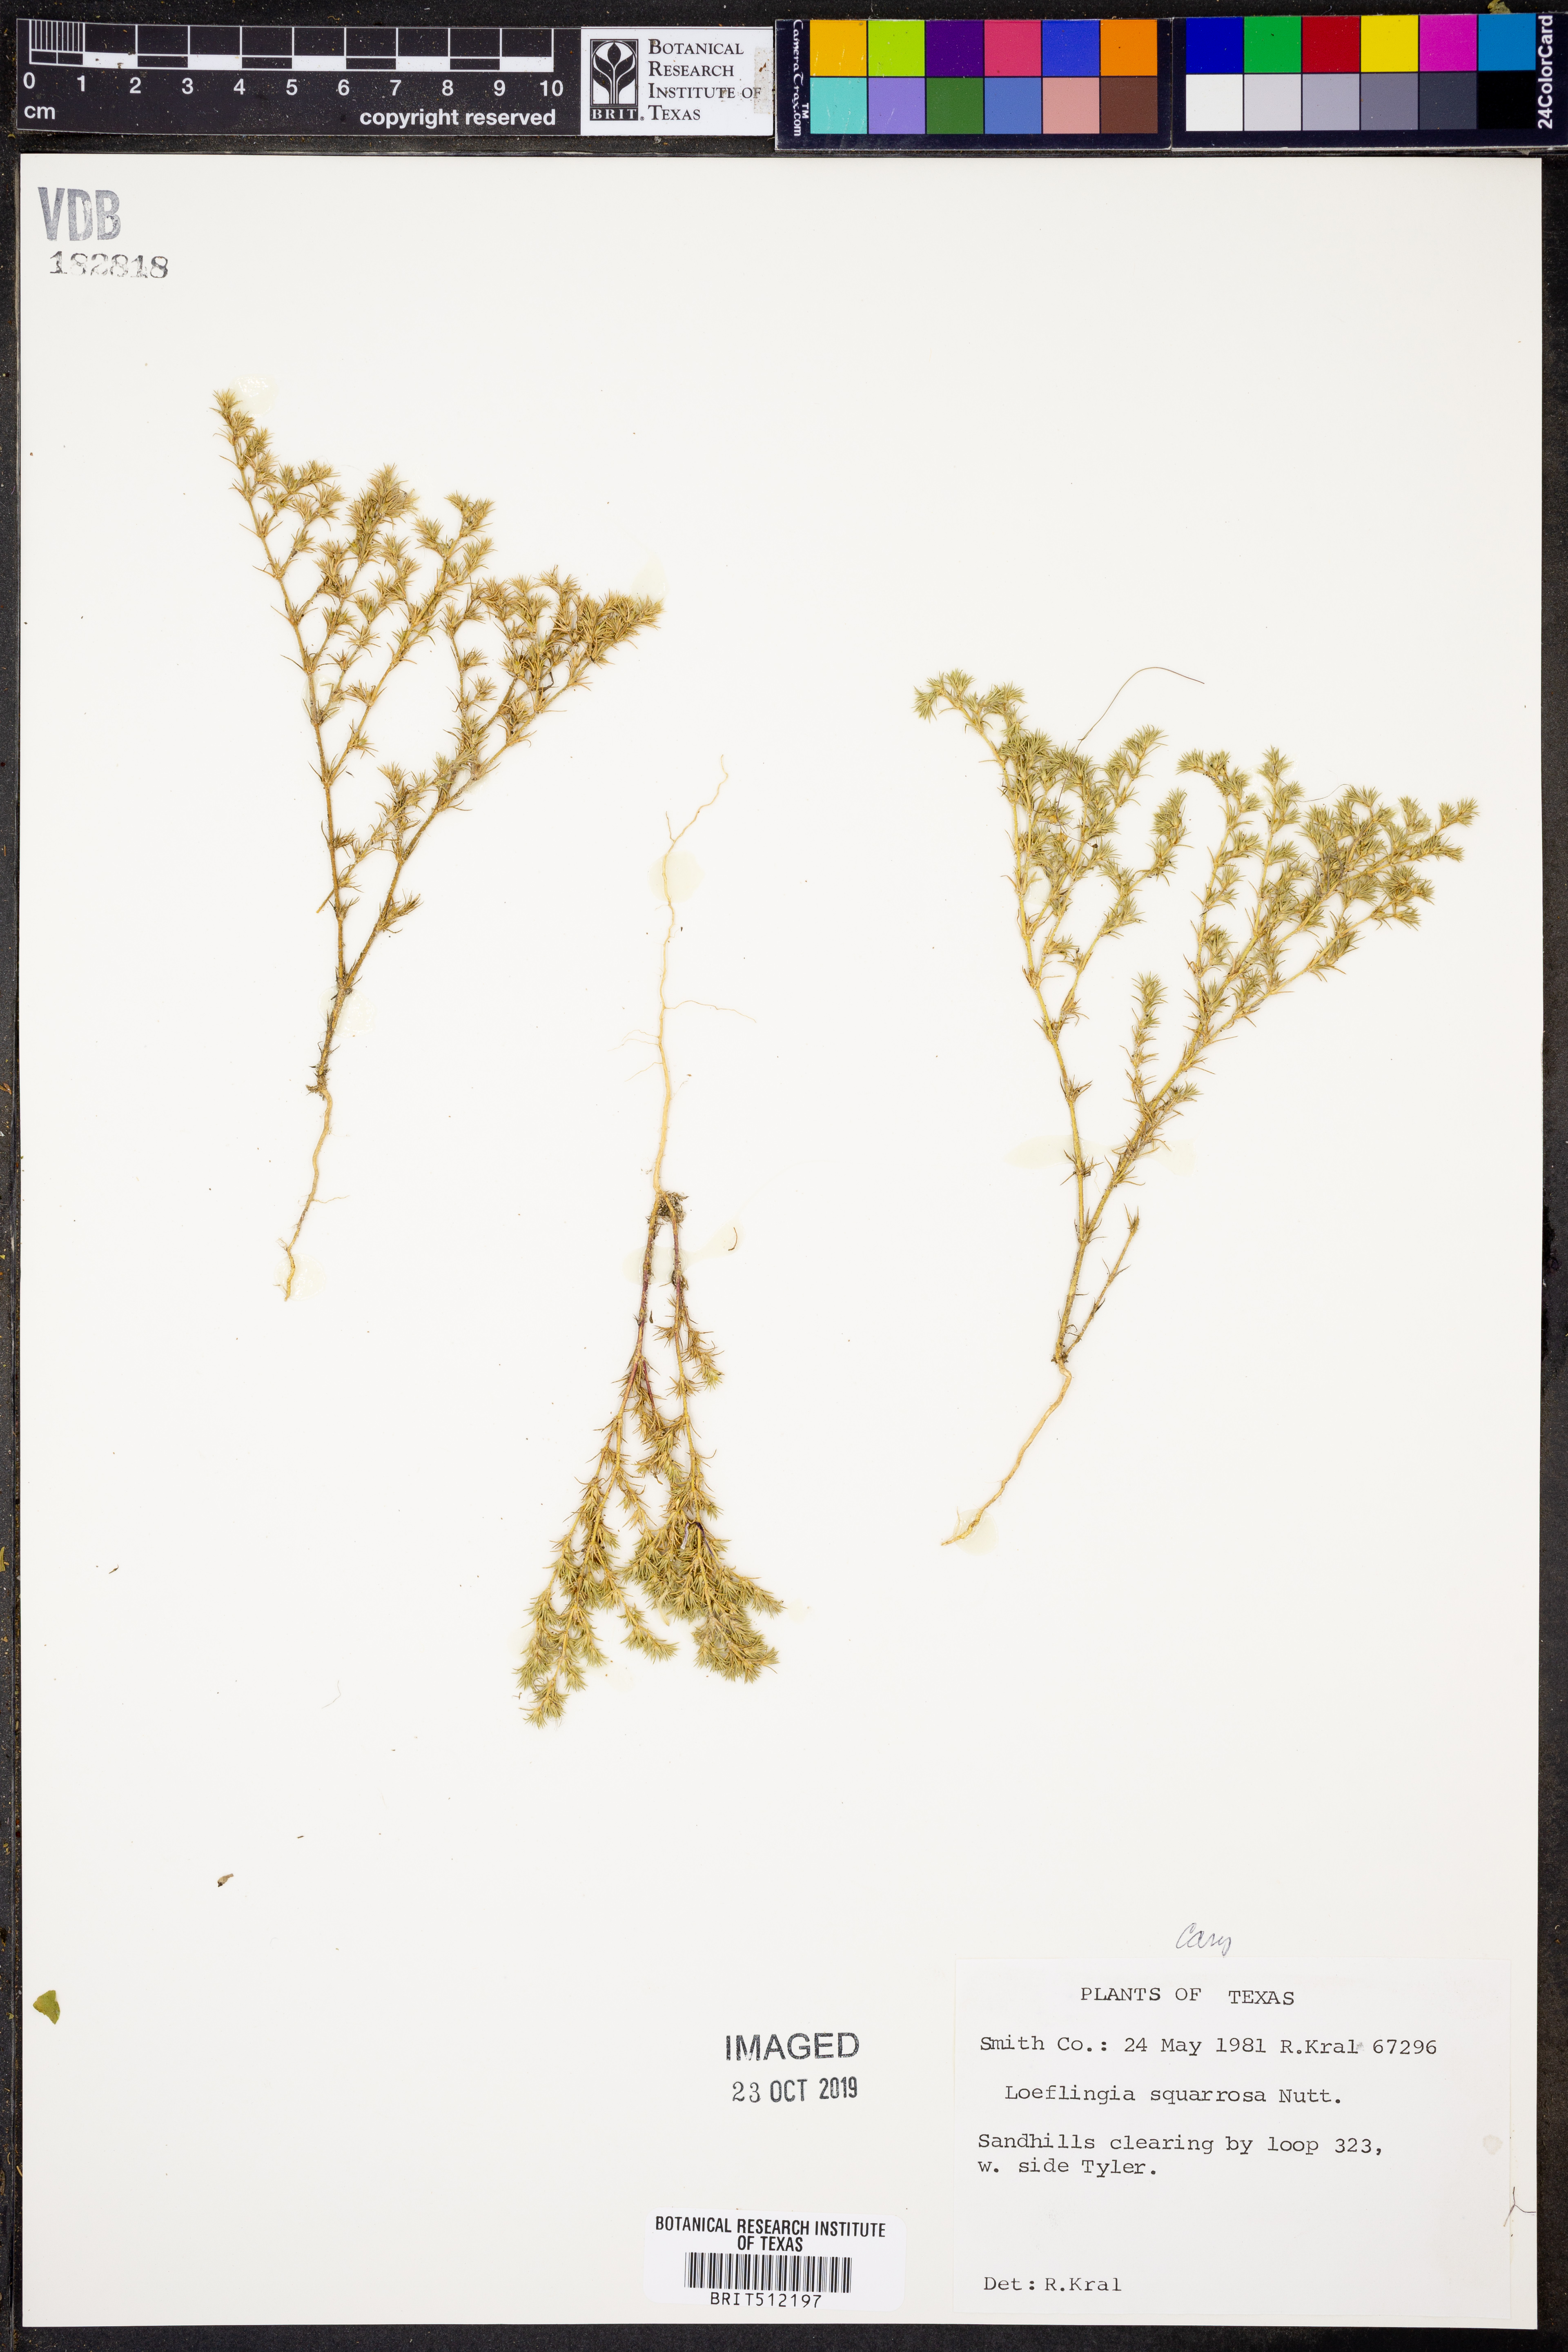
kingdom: Plantae
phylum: Tracheophyta
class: Magnoliopsida
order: Caryophyllales
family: Caryophyllaceae
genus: Loeflingia
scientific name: Loeflingia squarrosa
